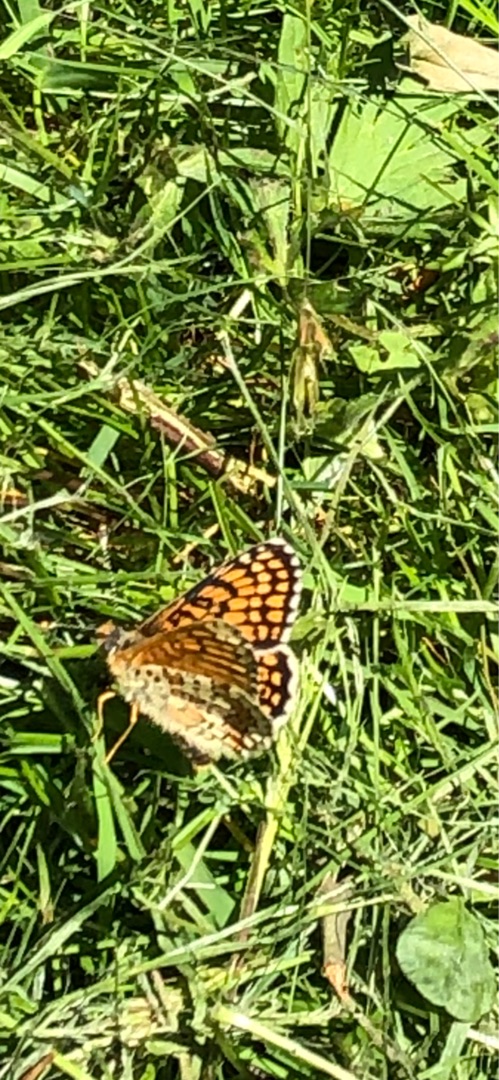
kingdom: Animalia
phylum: Arthropoda
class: Insecta
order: Lepidoptera
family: Nymphalidae
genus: Melitaea
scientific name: Melitaea cinxia
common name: Okkergul pletvinge
